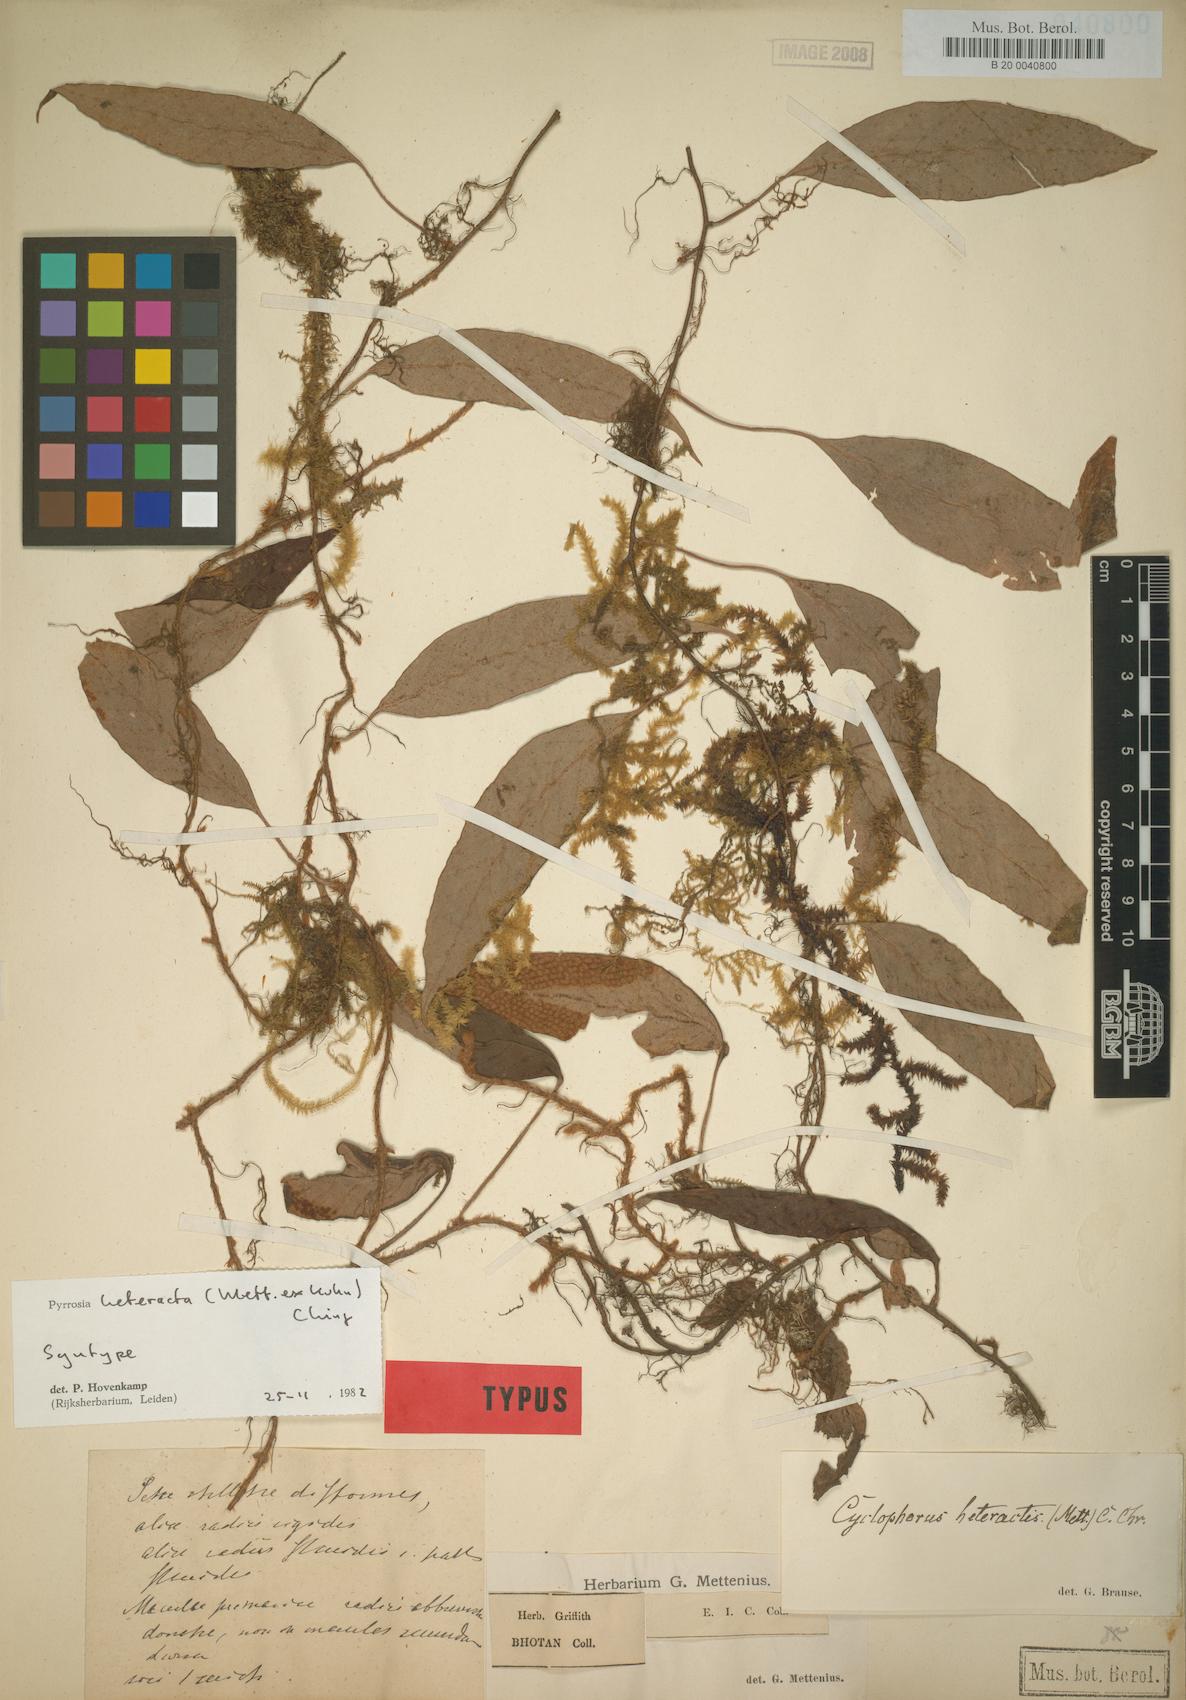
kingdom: Plantae
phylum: Tracheophyta
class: Polypodiopsida
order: Polypodiales
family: Polypodiaceae
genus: Pyrrosia
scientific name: Pyrrosia heteractis
